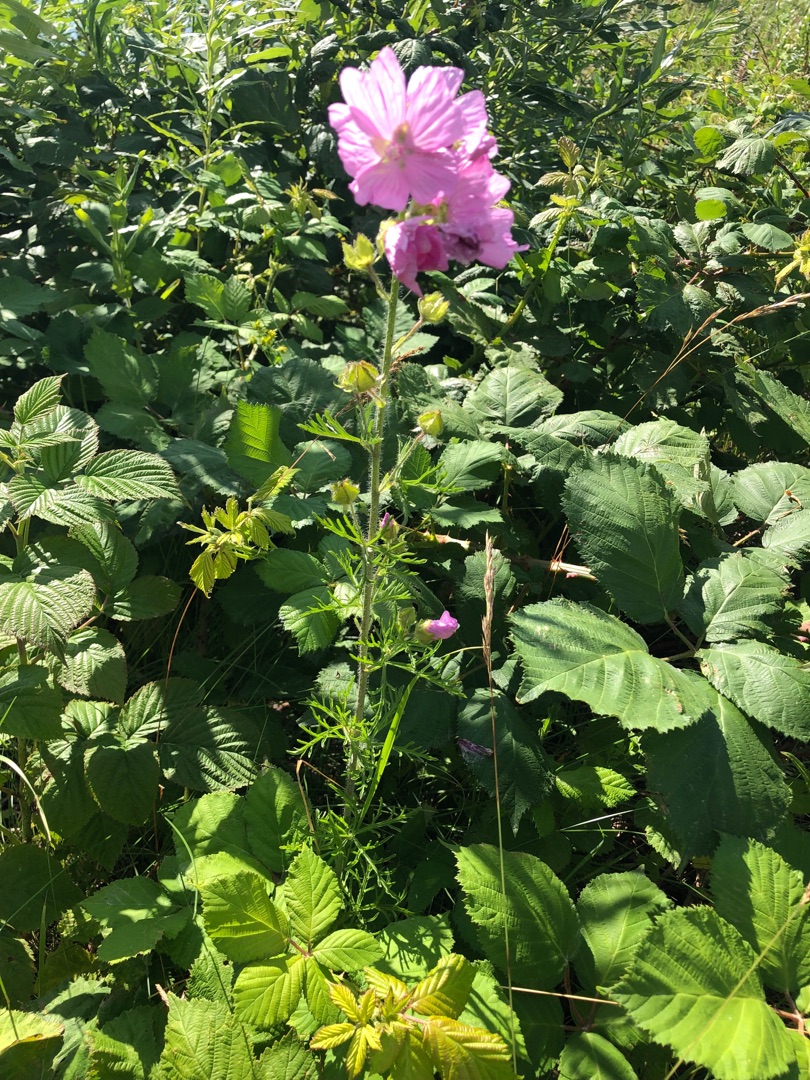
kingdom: Plantae
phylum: Tracheophyta
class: Magnoliopsida
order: Malvales
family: Malvaceae
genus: Malva
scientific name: Malva moschata
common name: Moskus-katost
